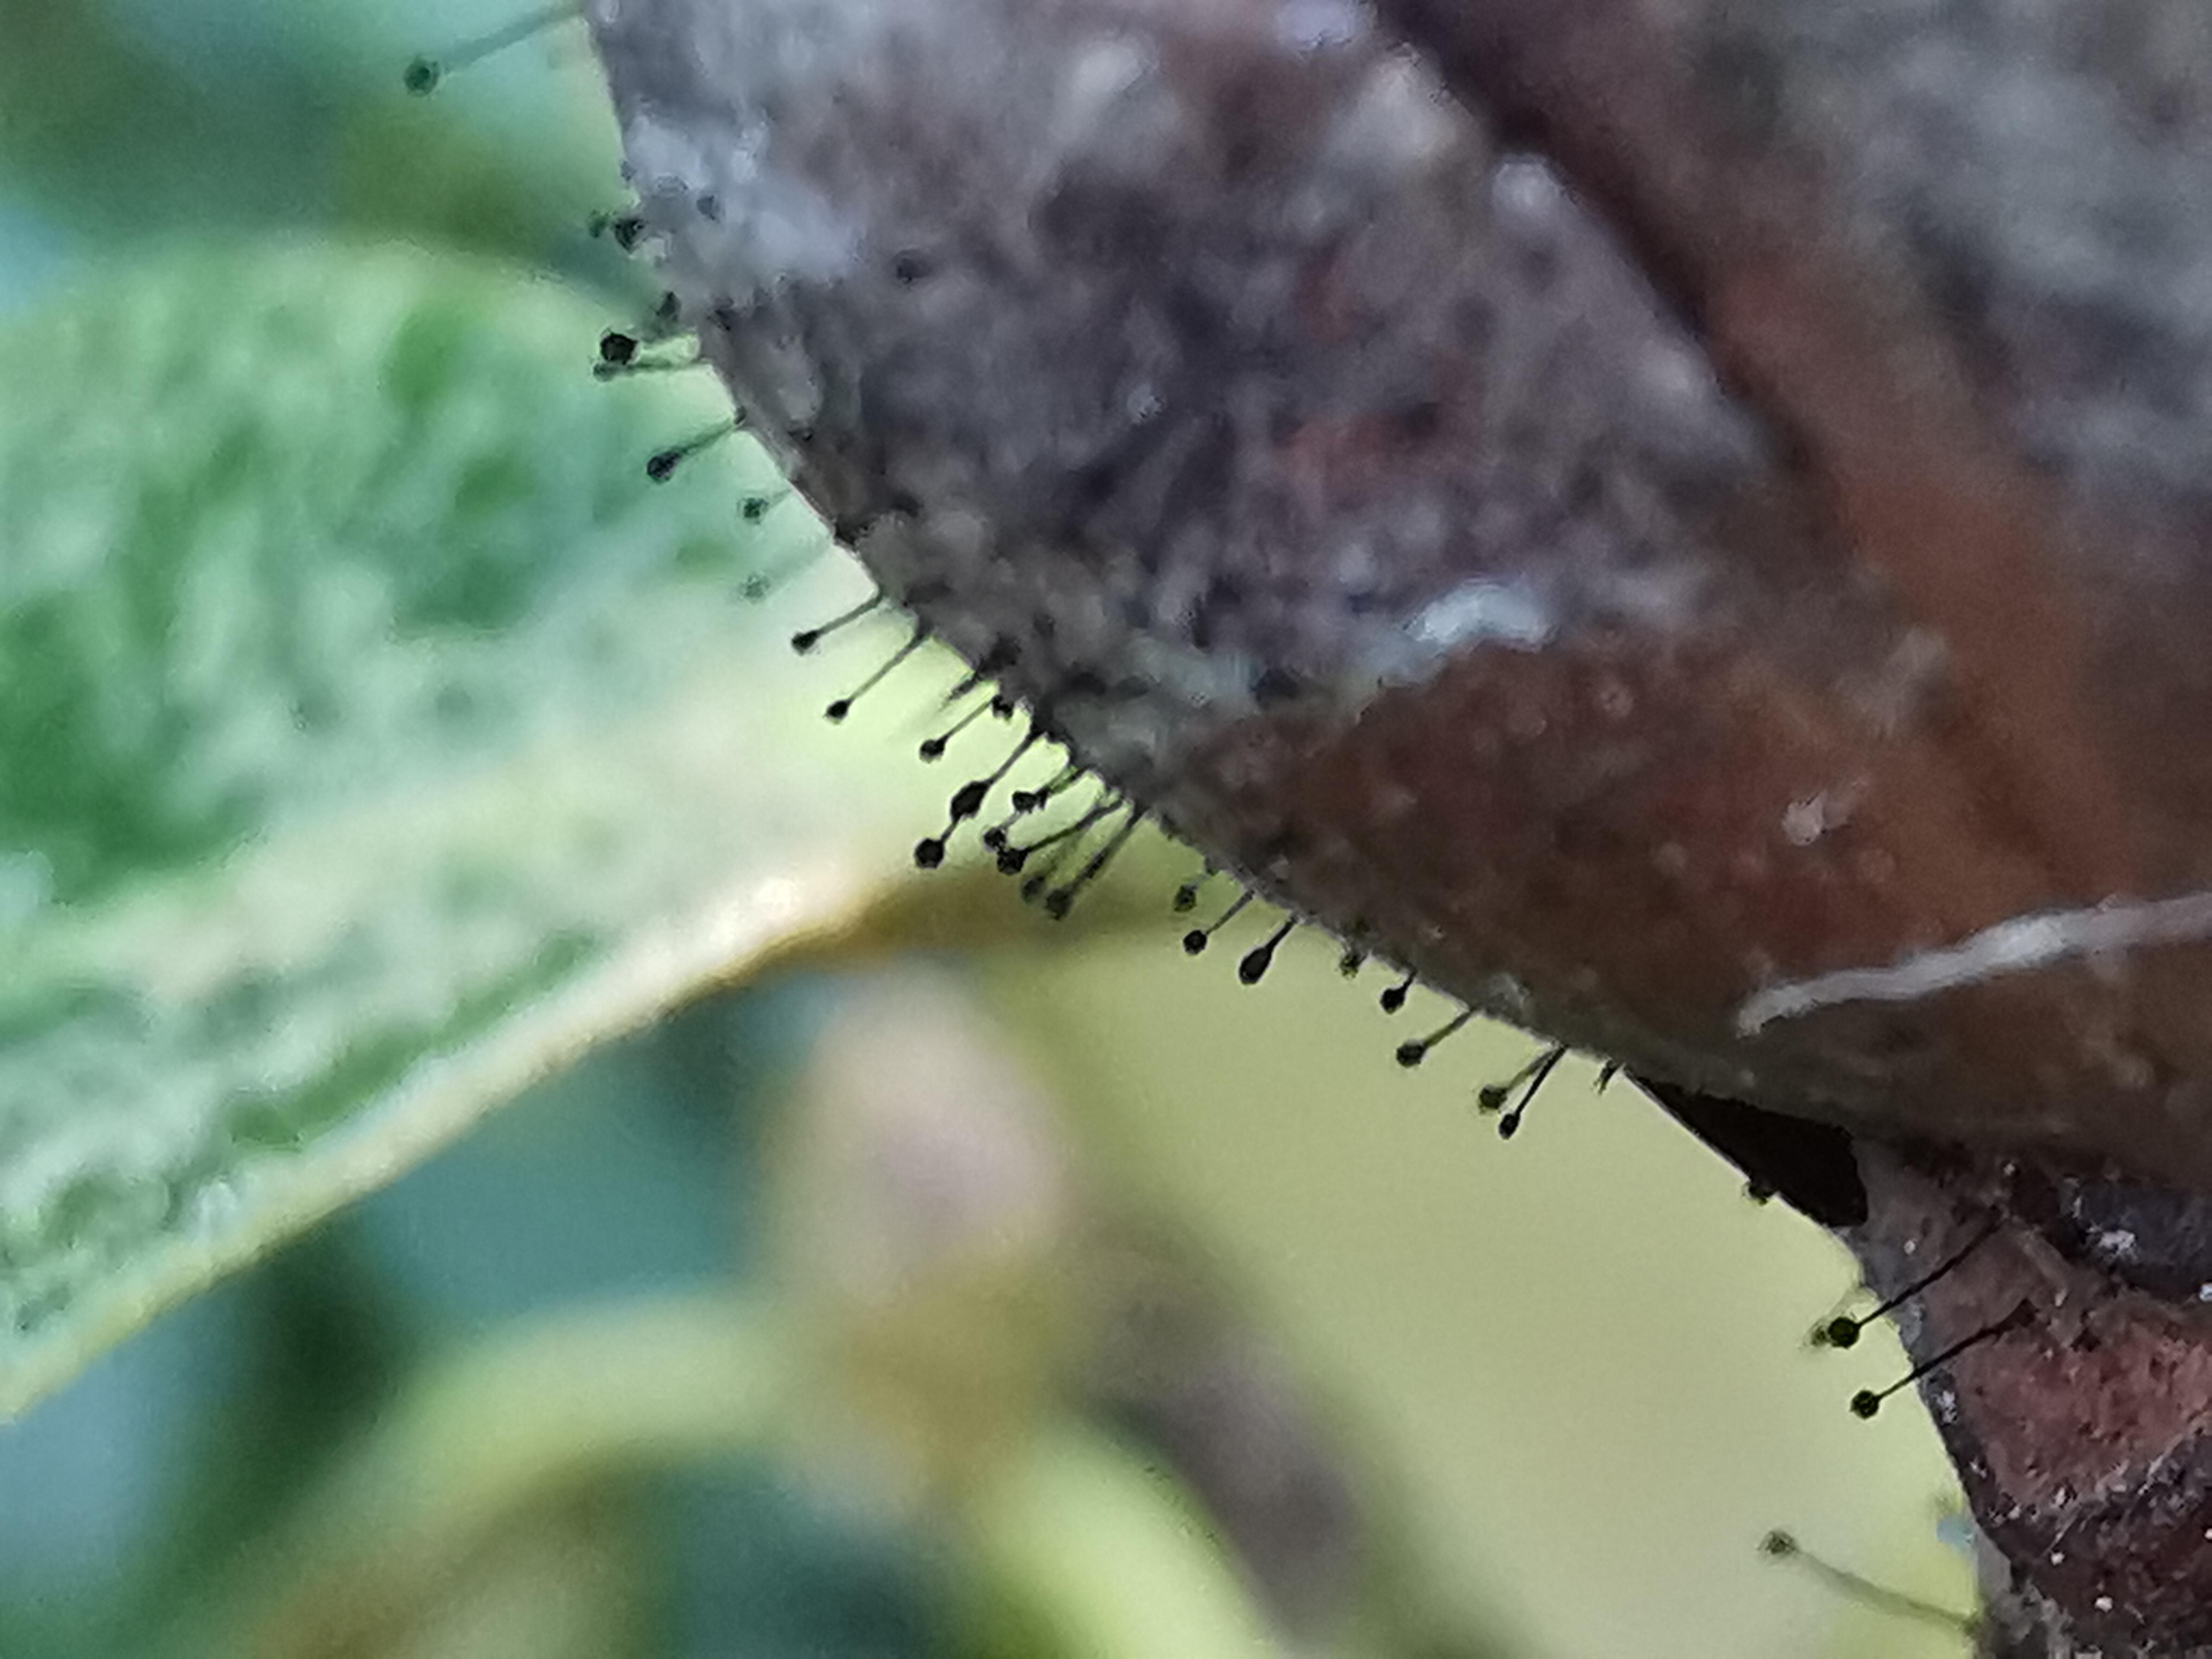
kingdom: Fungi
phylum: Ascomycota
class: Dothideomycetes
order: Pleosporales
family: Melanommataceae
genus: Seifertia
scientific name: Seifertia azaleae
